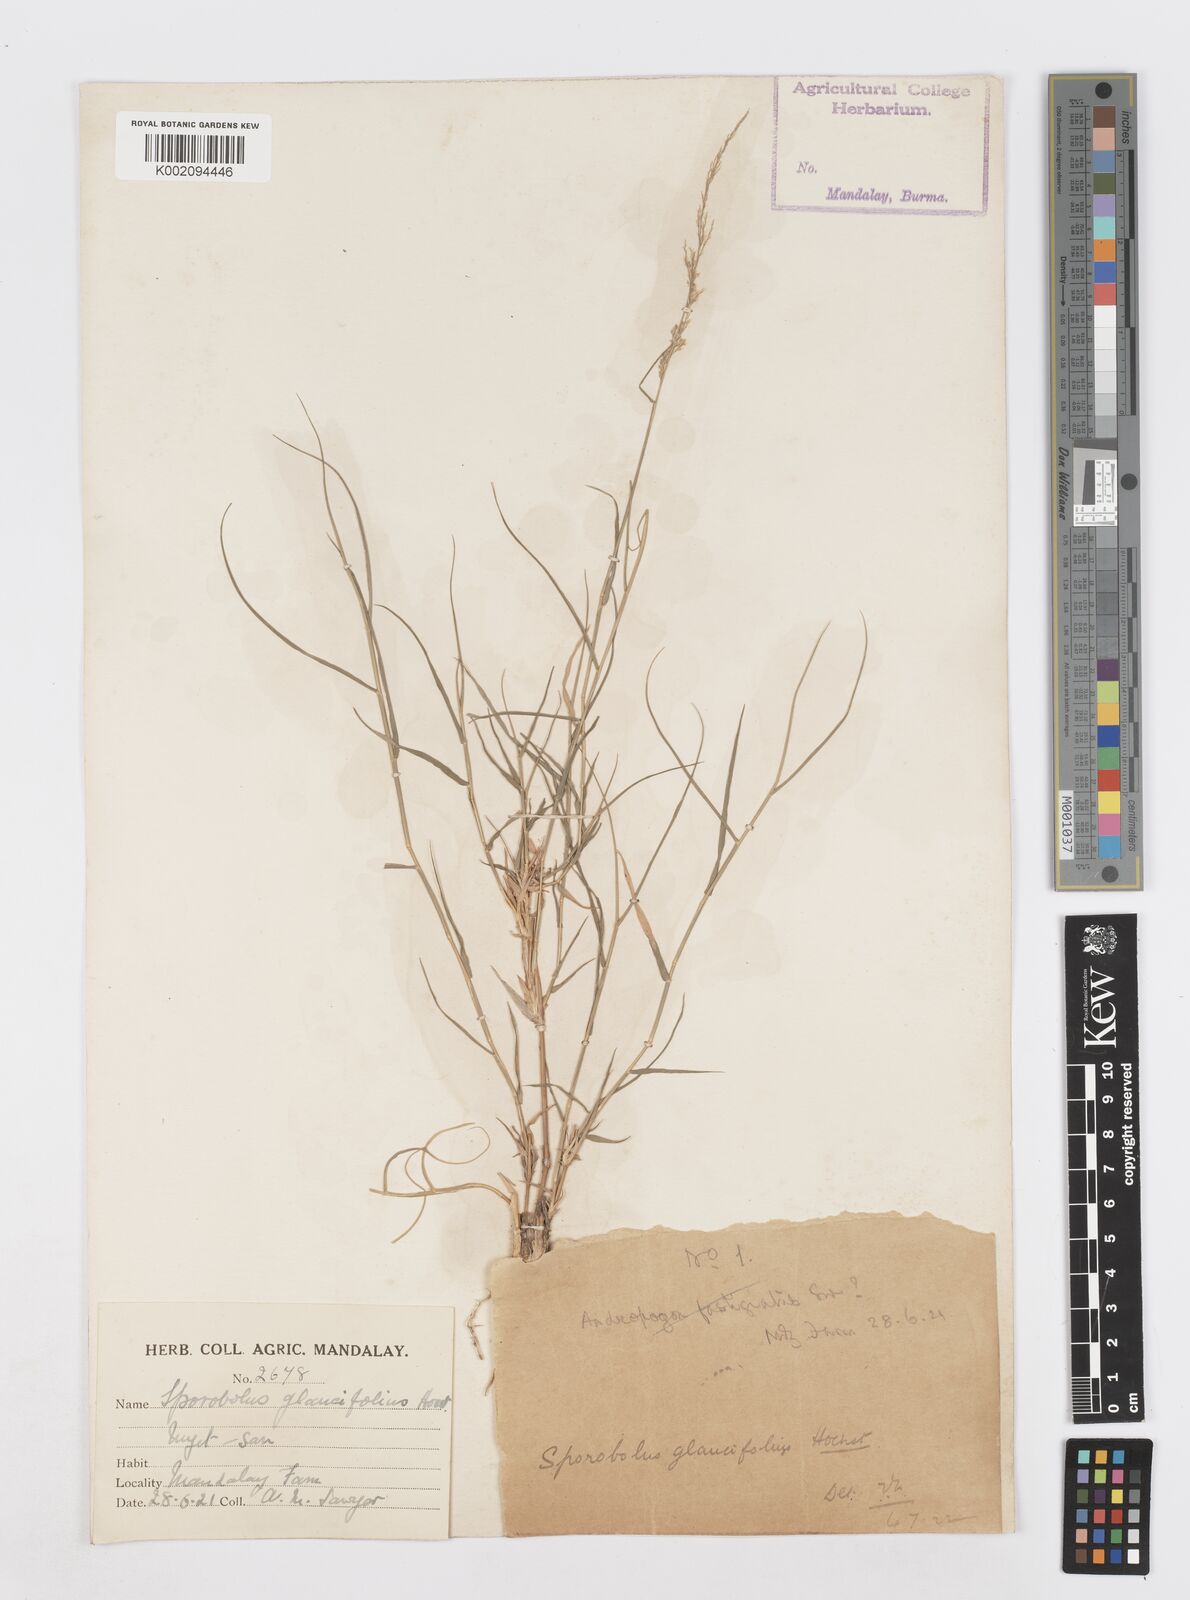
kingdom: Plantae
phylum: Tracheophyta
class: Liliopsida
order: Poales
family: Poaceae
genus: Sporobolus
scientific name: Sporobolus helvolus
